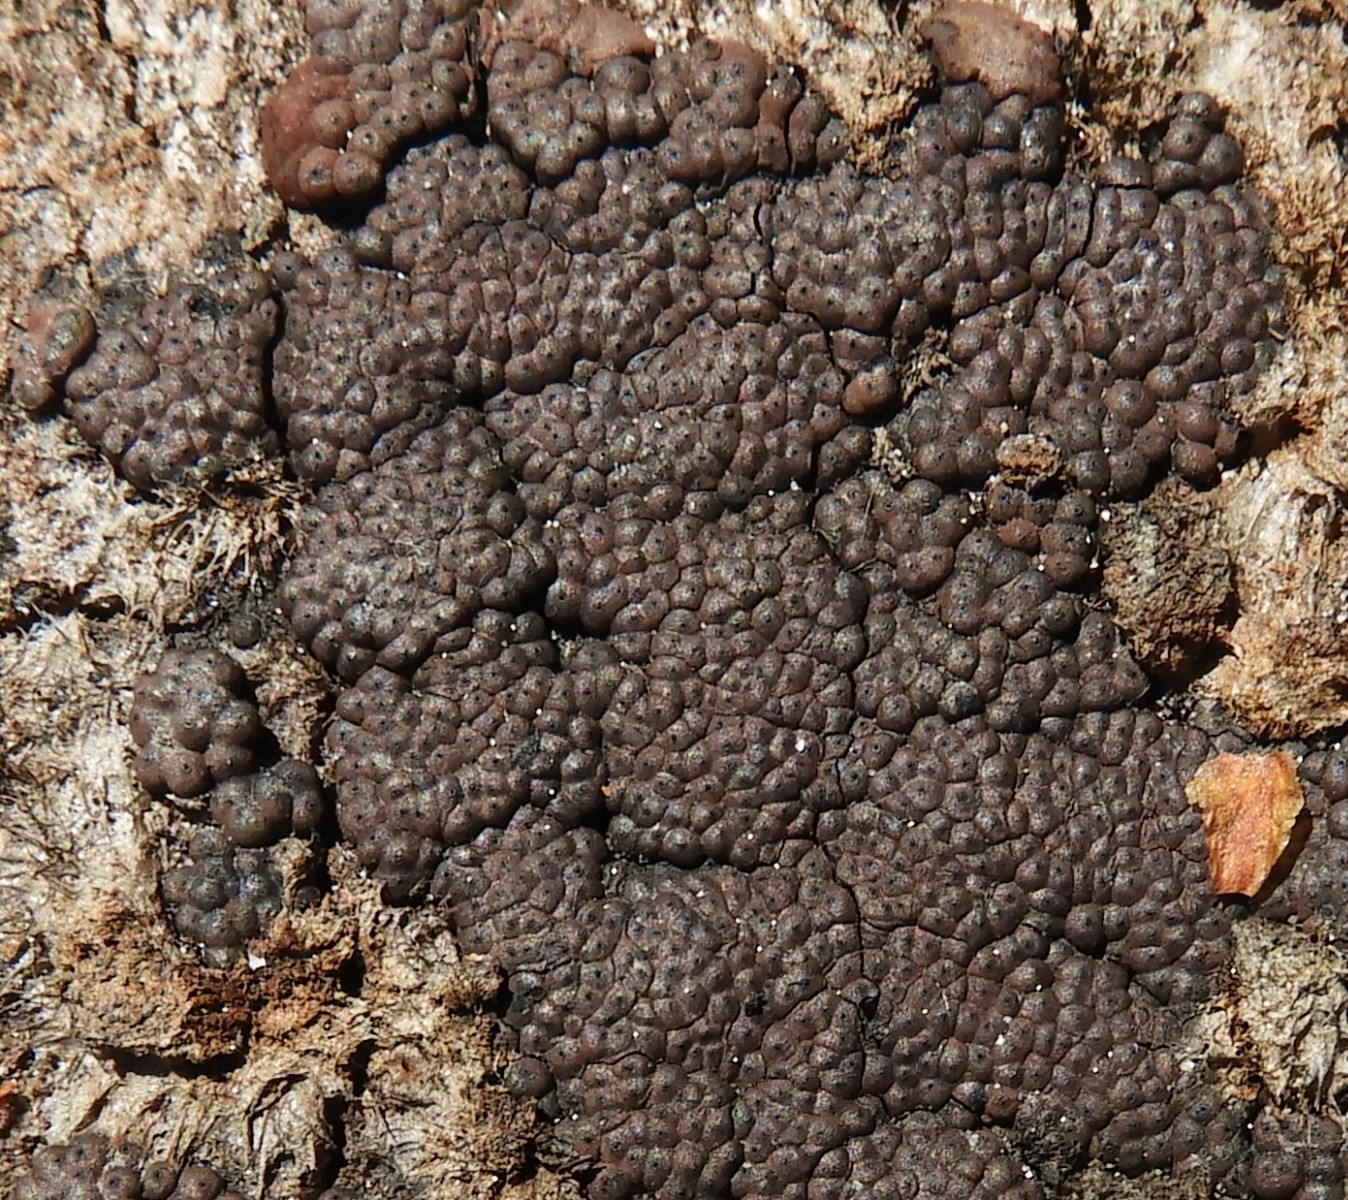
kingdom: Fungi
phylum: Ascomycota
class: Sordariomycetes
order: Xylariales
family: Hypoxylaceae
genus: Jackrogersella
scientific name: Jackrogersella multiformis
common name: foranderlig kulbær
